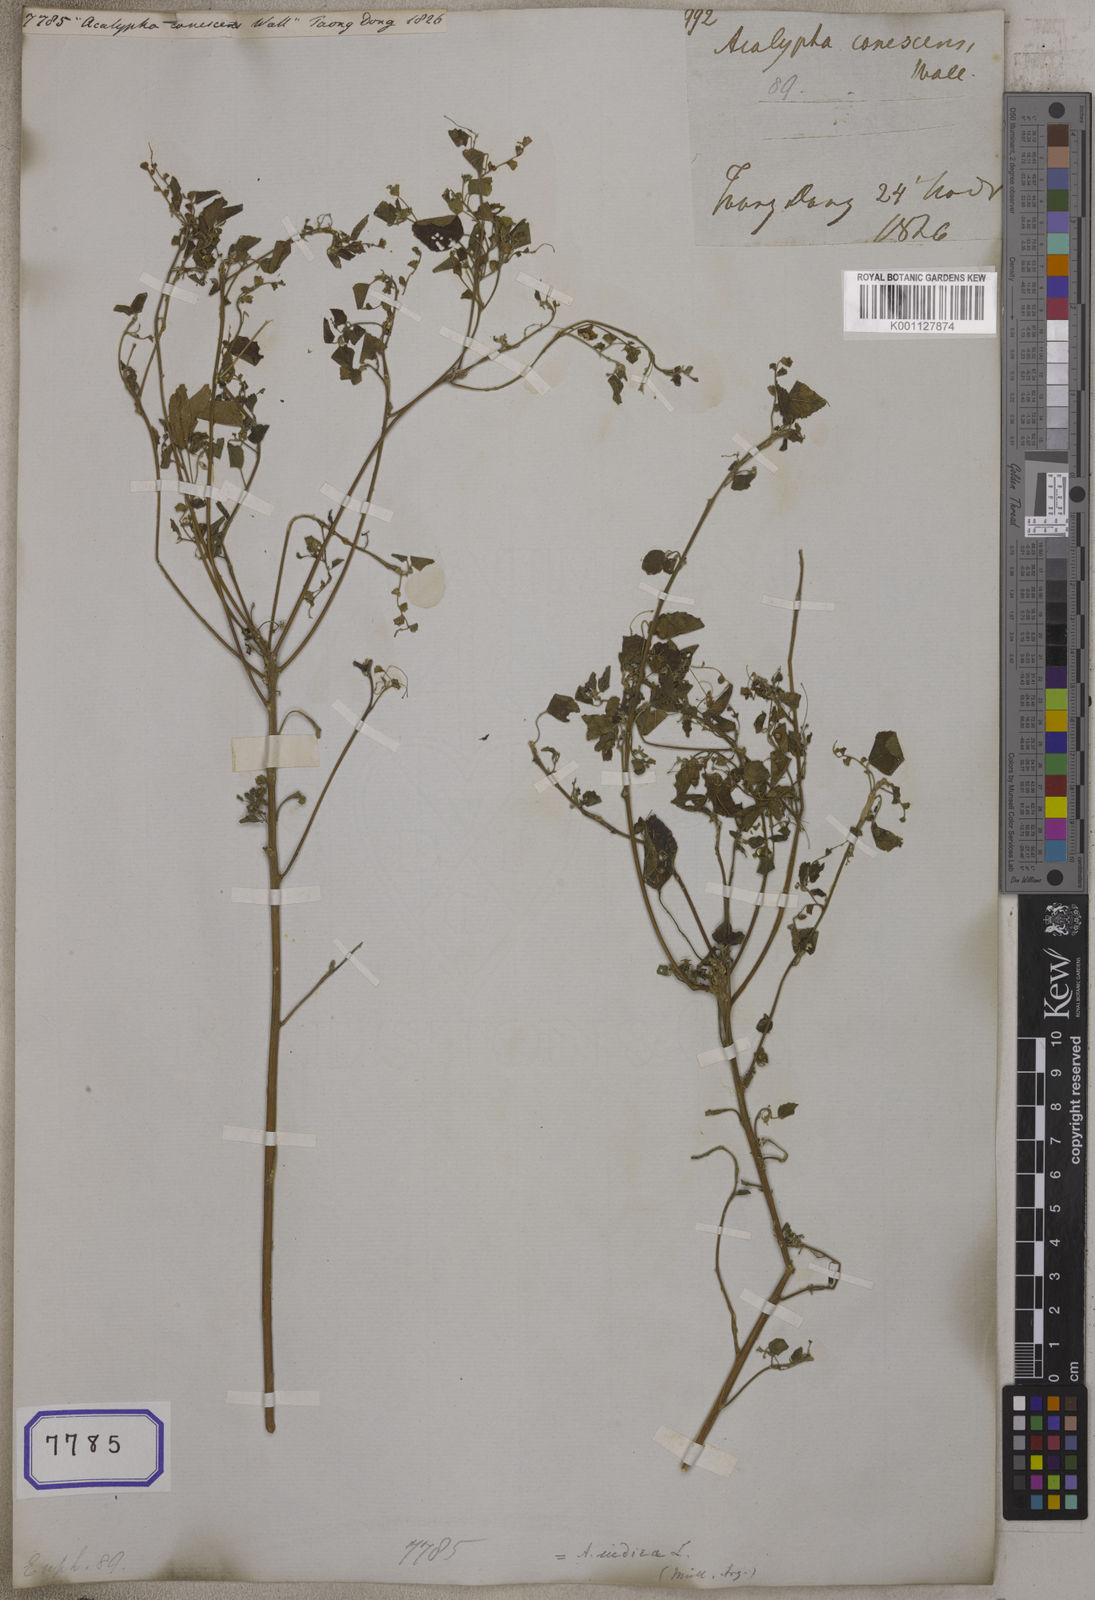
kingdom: Plantae
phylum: Tracheophyta
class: Magnoliopsida
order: Malpighiales
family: Euphorbiaceae
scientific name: Euphorbiaceae
